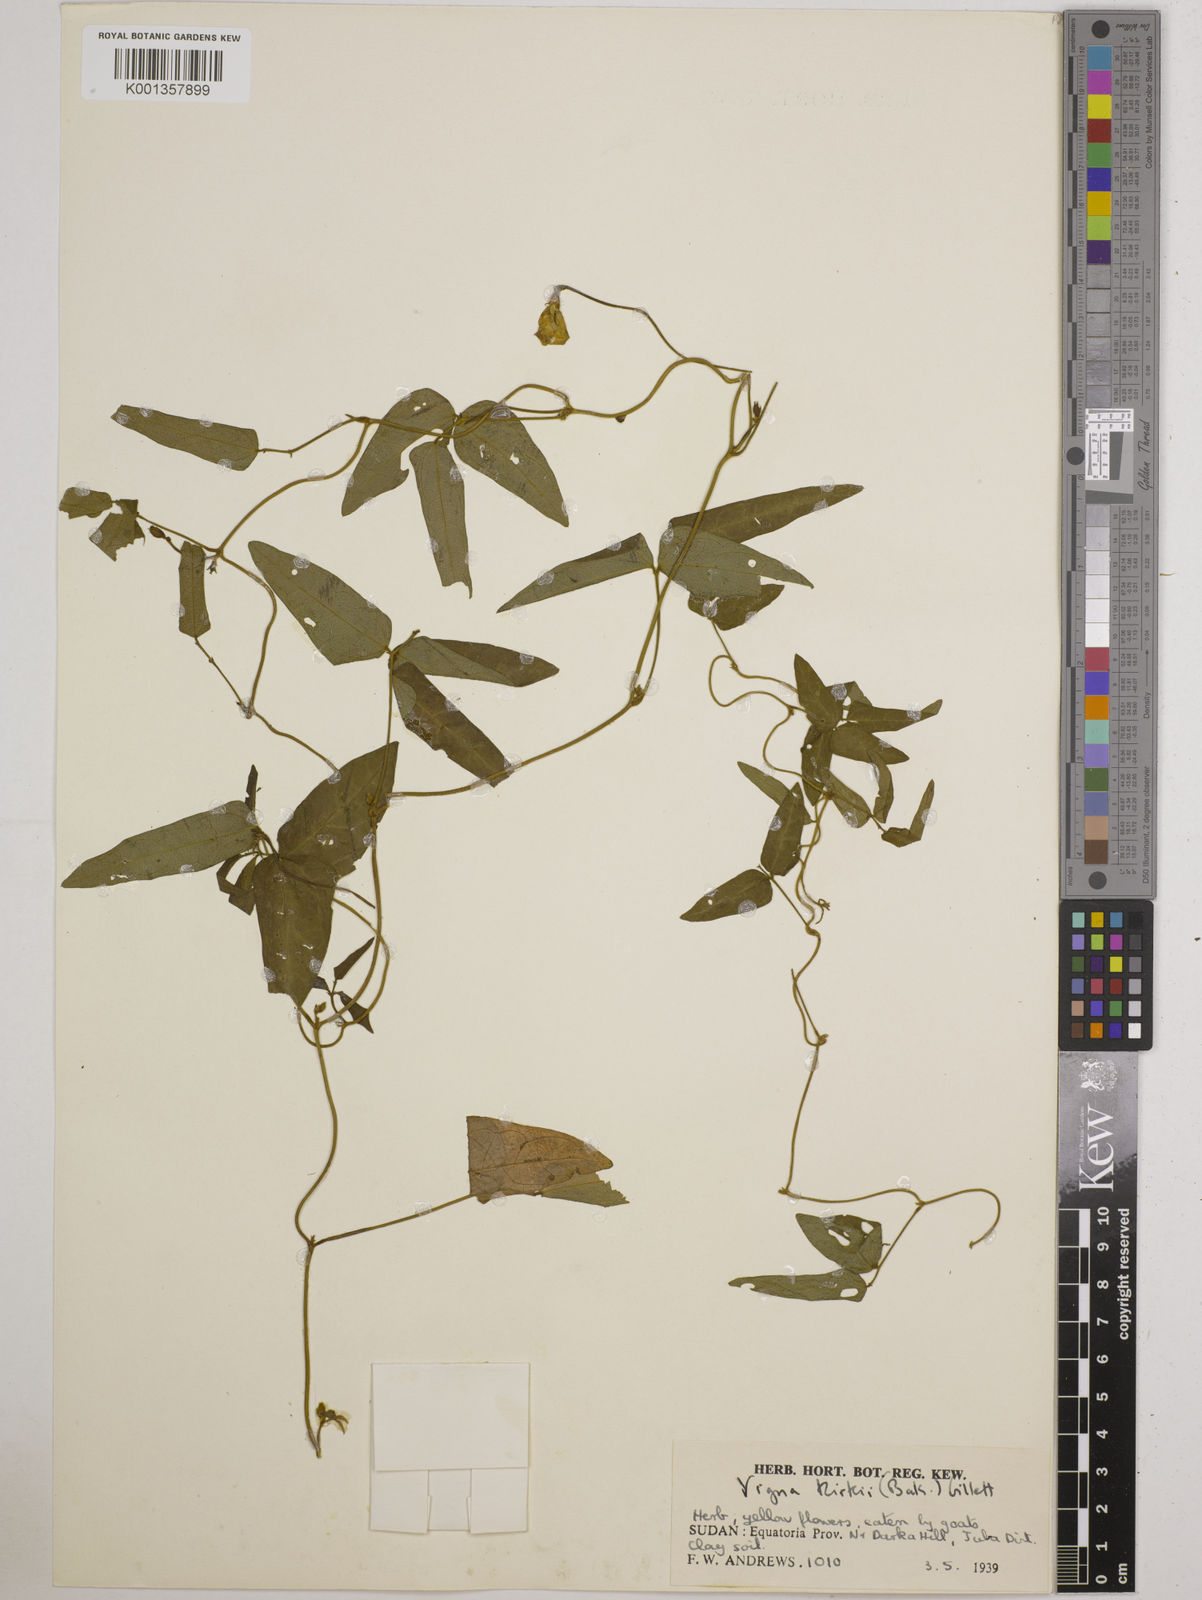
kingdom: Plantae
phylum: Tracheophyta
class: Magnoliopsida
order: Fabales
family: Fabaceae
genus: Vigna
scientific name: Vigna kirkii
